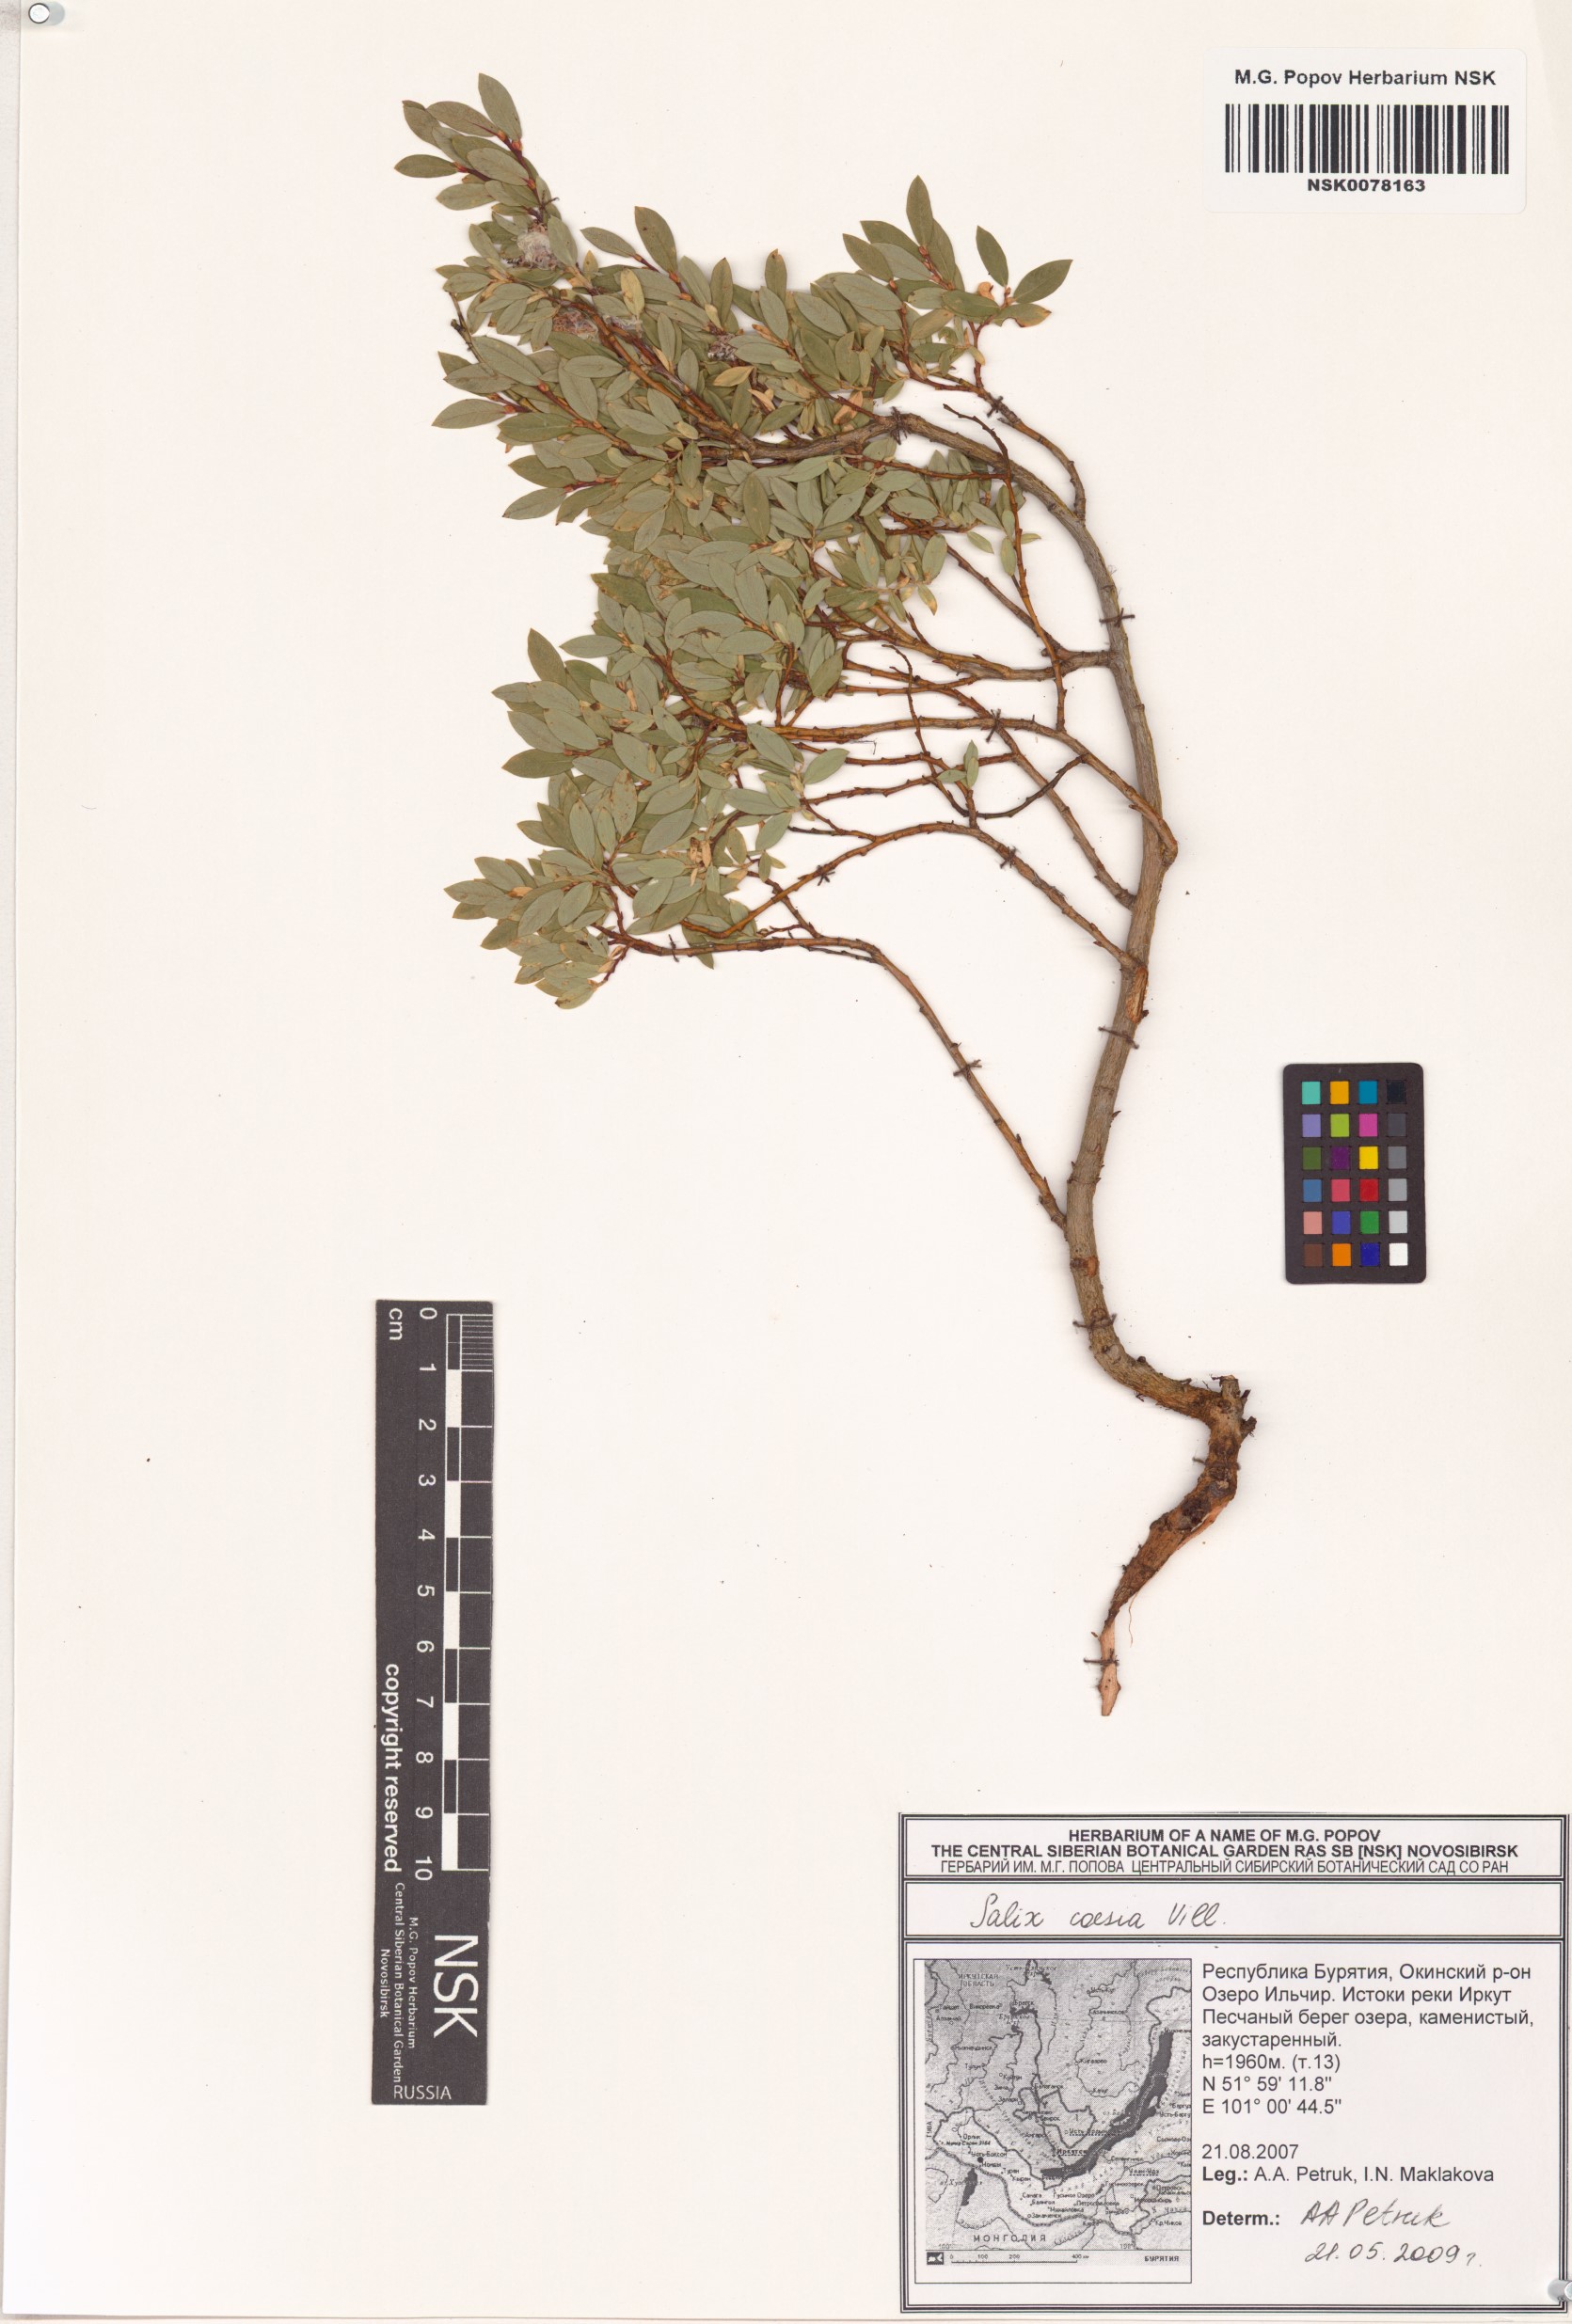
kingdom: Plantae
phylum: Tracheophyta
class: Magnoliopsida
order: Malpighiales
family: Salicaceae
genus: Salix
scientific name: Salix caesia
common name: Blue willow
